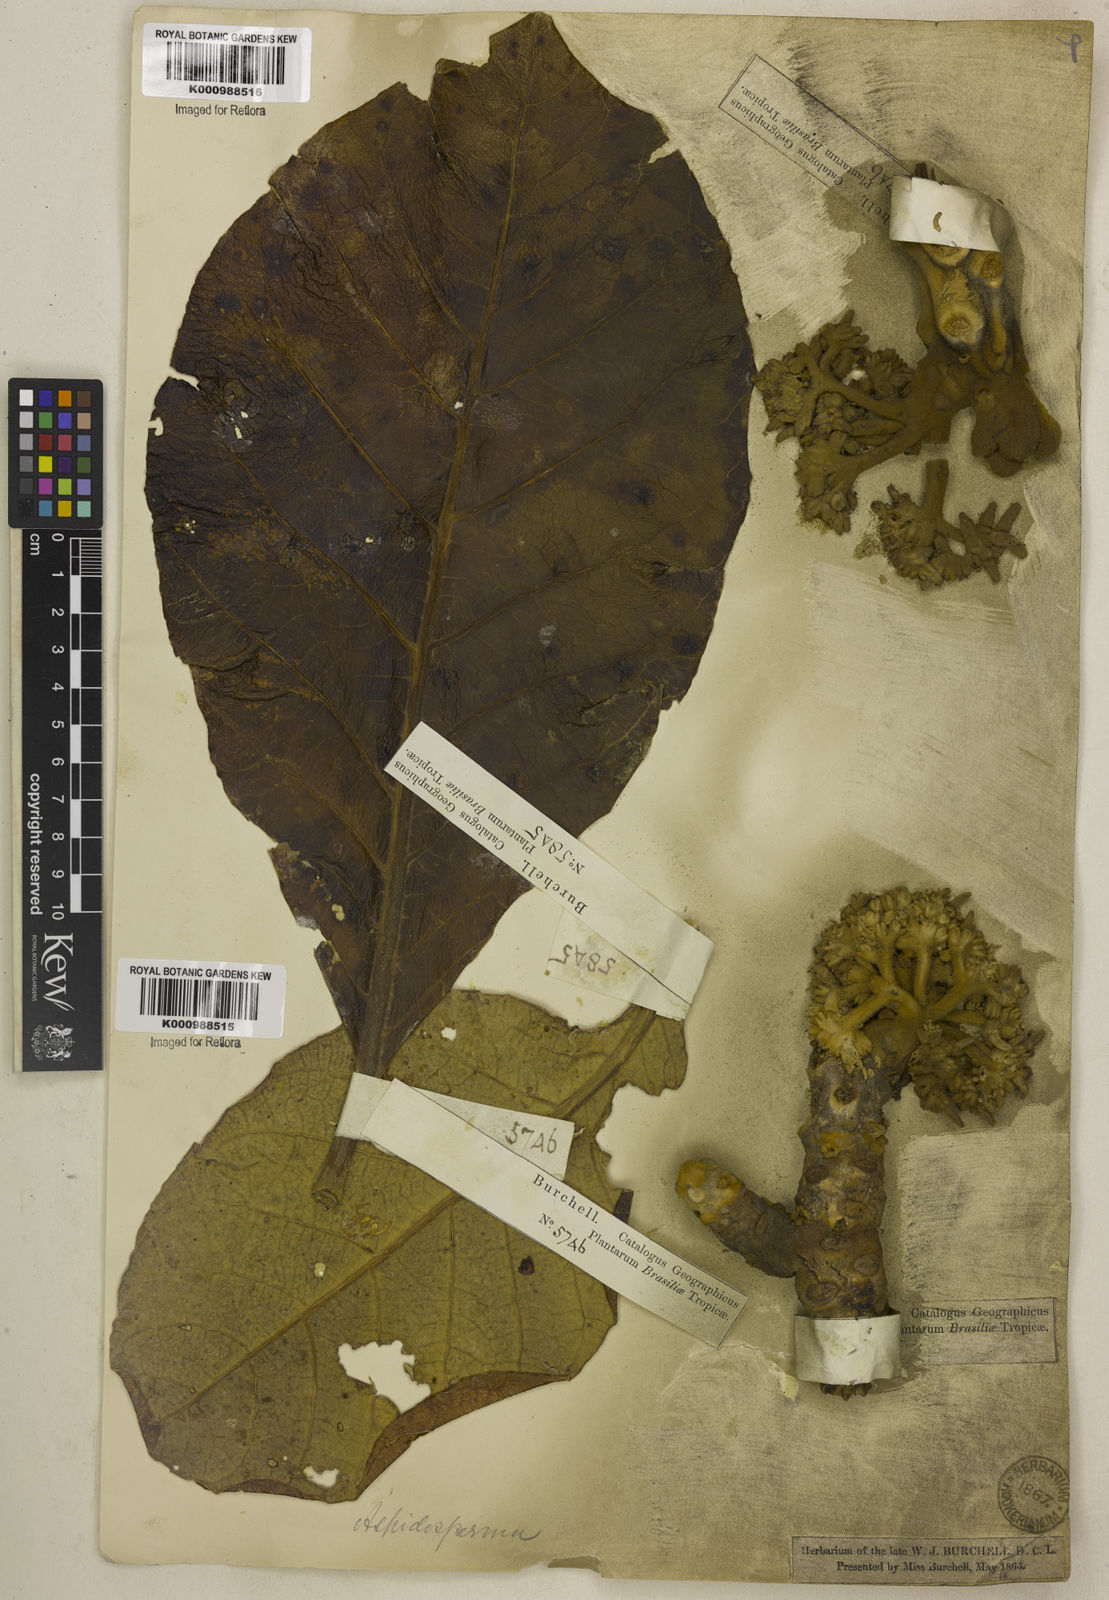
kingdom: Plantae
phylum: Tracheophyta
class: Magnoliopsida
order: Gentianales
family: Apocynaceae
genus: Aspidosperma
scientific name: Aspidosperma macrocarpon
